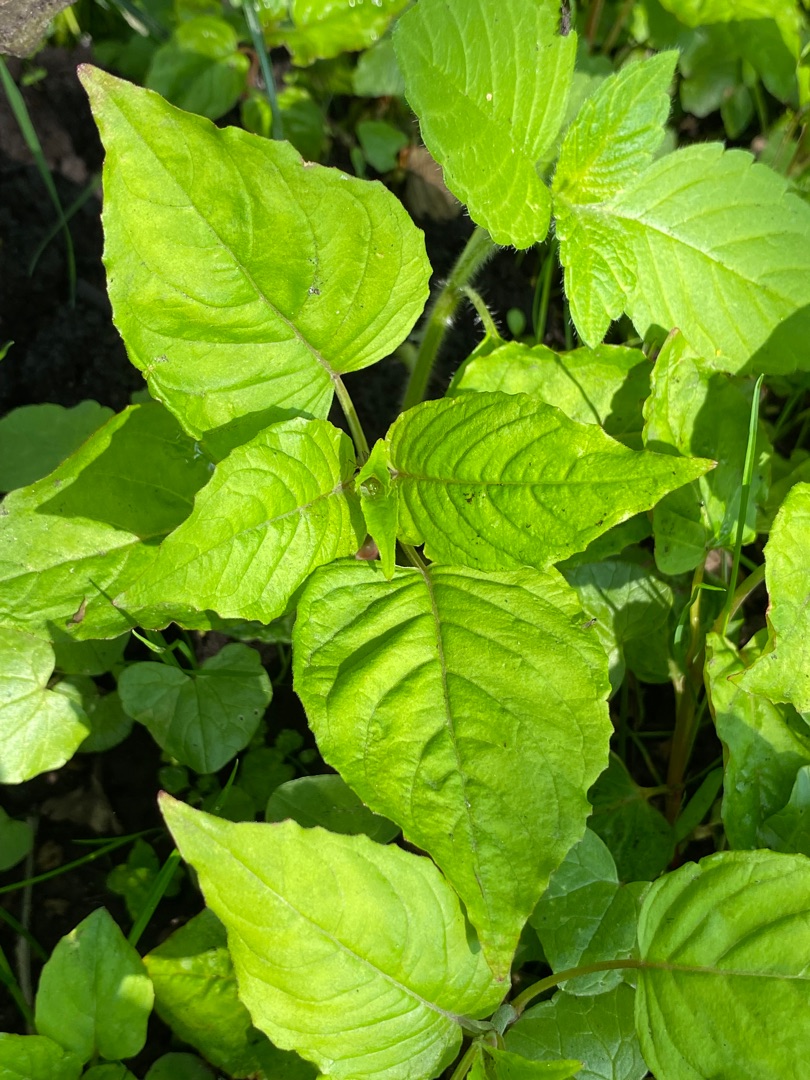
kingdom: Plantae
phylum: Tracheophyta
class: Magnoliopsida
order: Myrtales
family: Onagraceae
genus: Circaea
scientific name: Circaea lutetiana
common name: Dunet steffensurt
